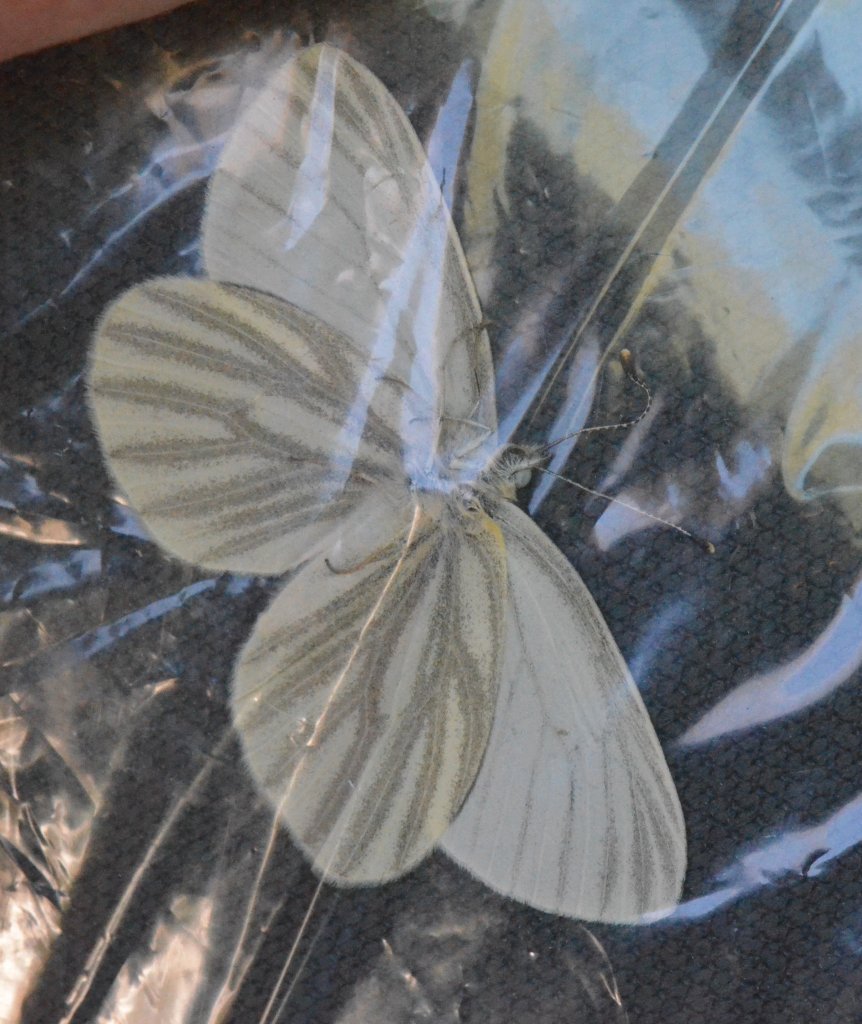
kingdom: Animalia
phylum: Arthropoda
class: Insecta
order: Lepidoptera
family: Pieridae
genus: Pieris
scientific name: Pieris virginiensis
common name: West Virginia White
